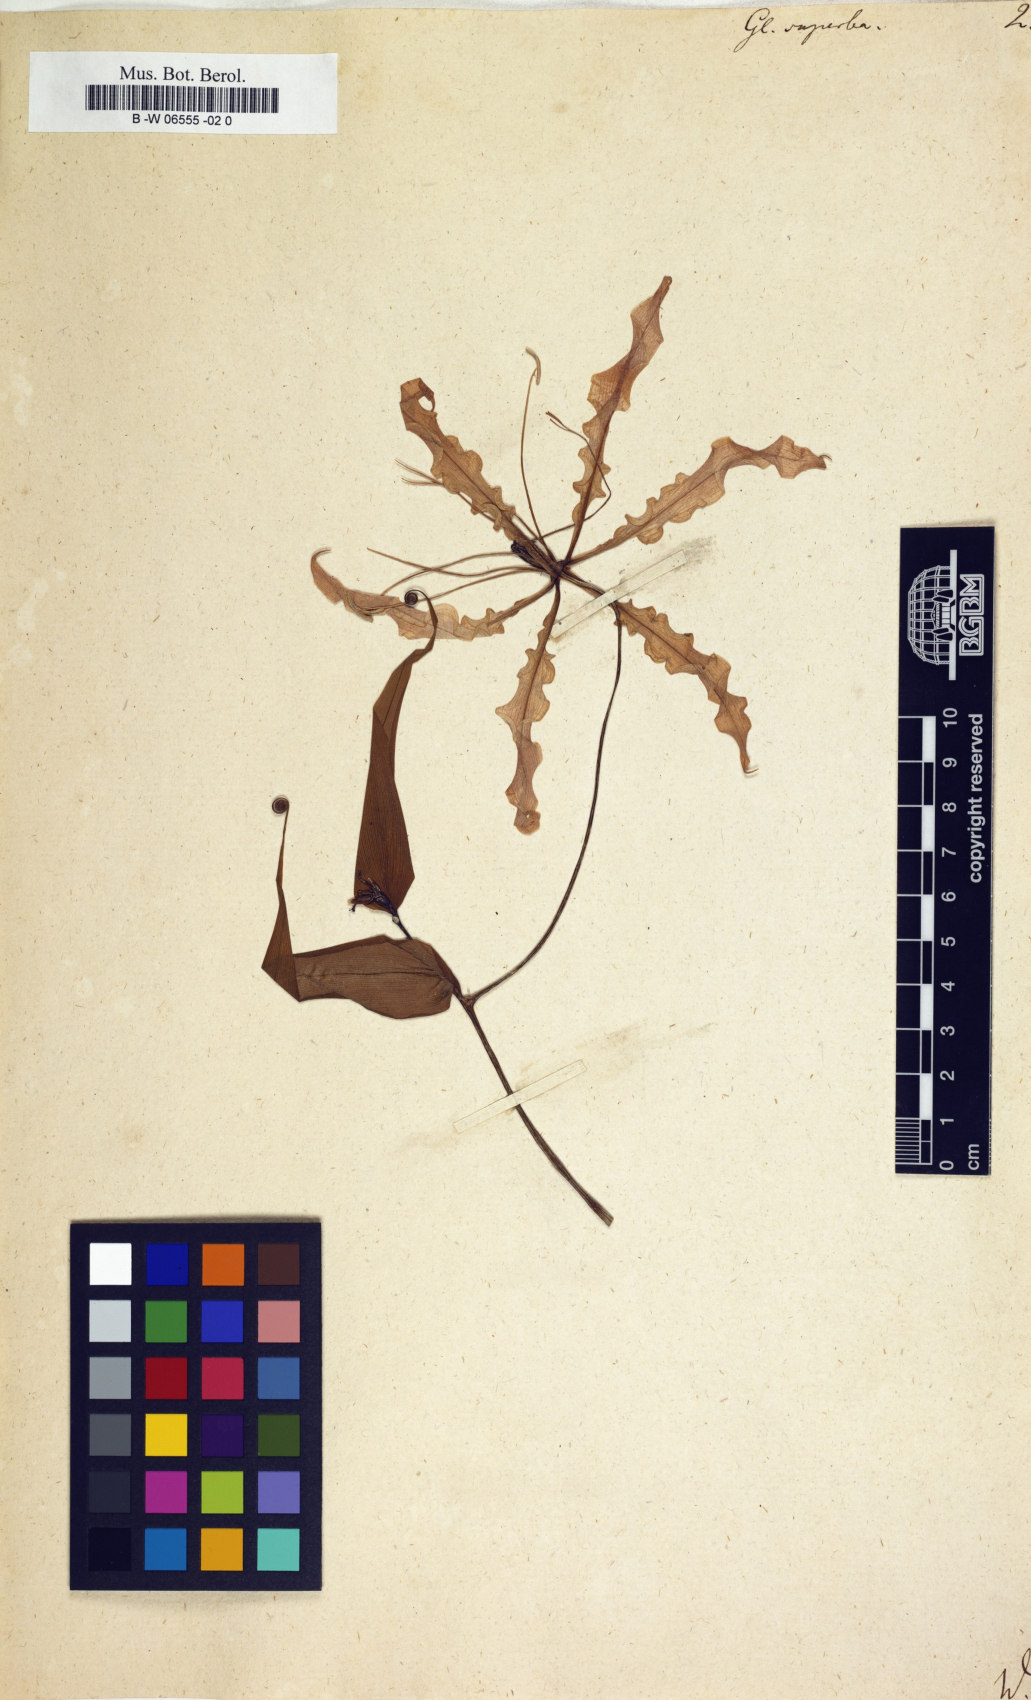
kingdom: Plantae
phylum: Tracheophyta
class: Liliopsida
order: Liliales
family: Colchicaceae
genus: Gloriosa
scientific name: Gloriosa superba
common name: Flame lily
